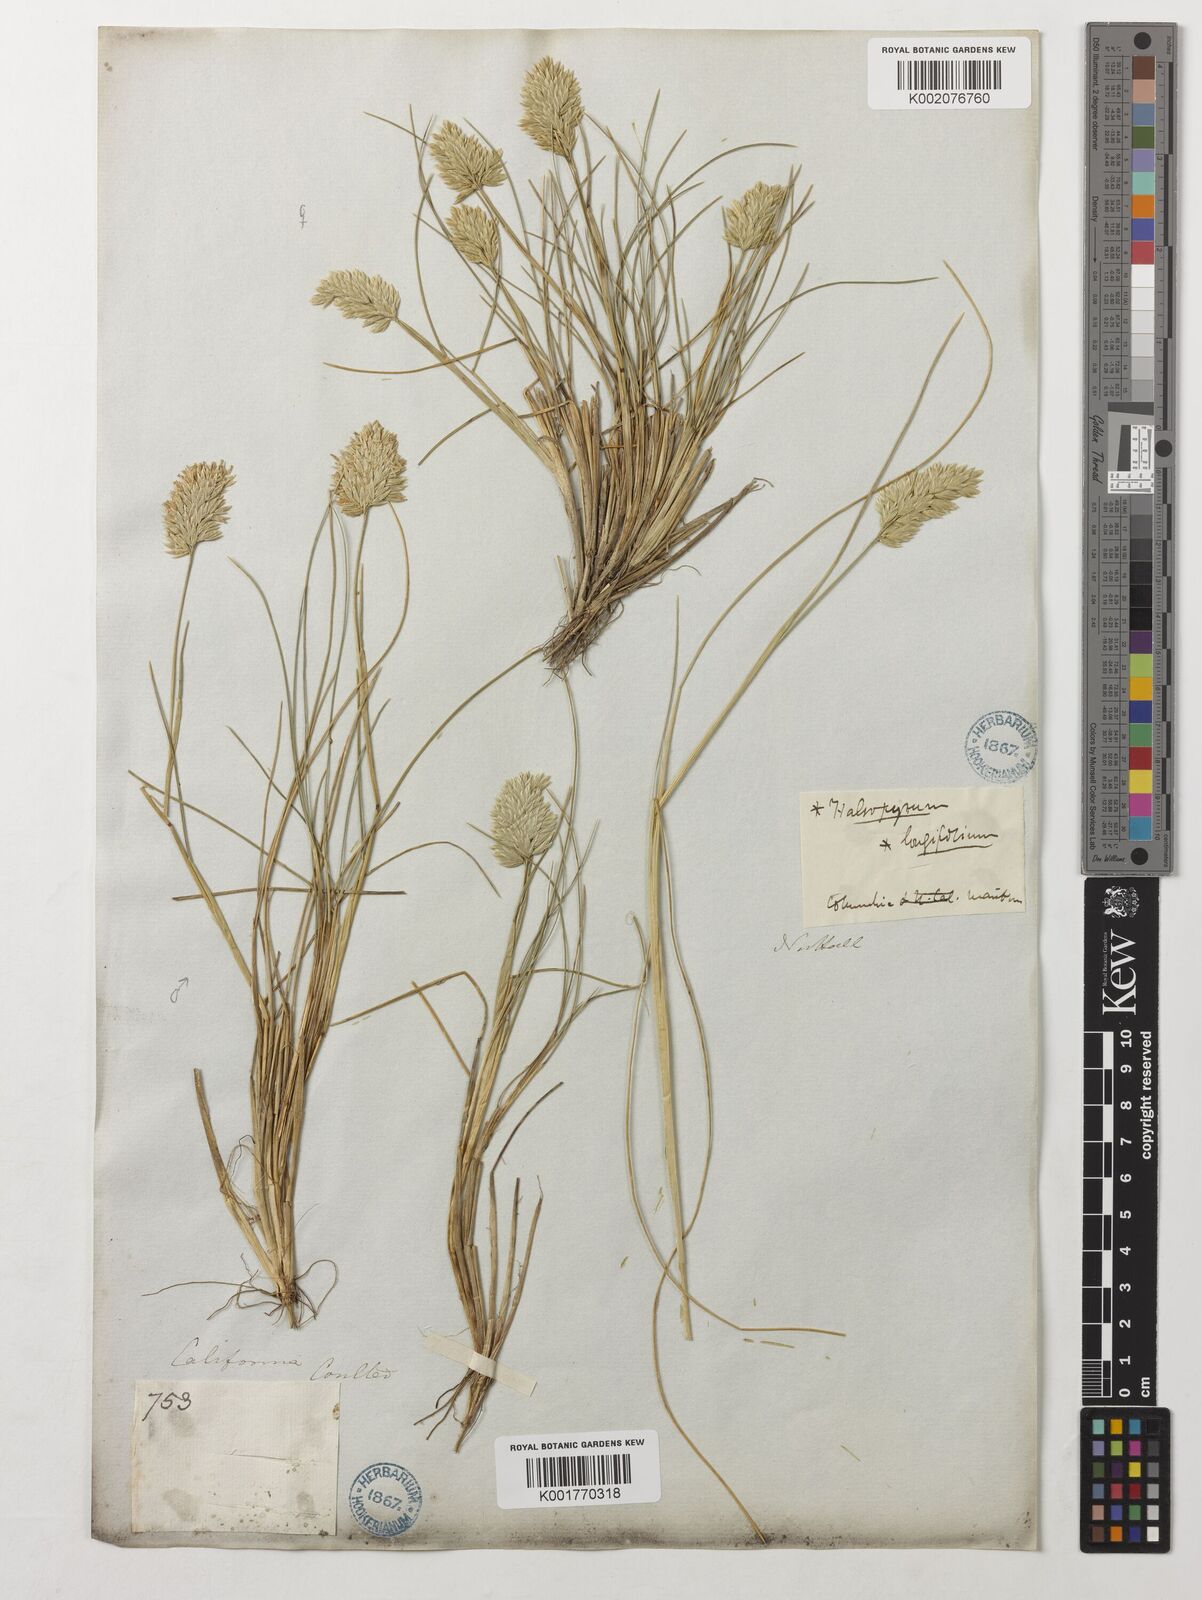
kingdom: Plantae
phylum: Tracheophyta
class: Liliopsida
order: Poales
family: Poaceae
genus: Poa
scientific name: Poa
